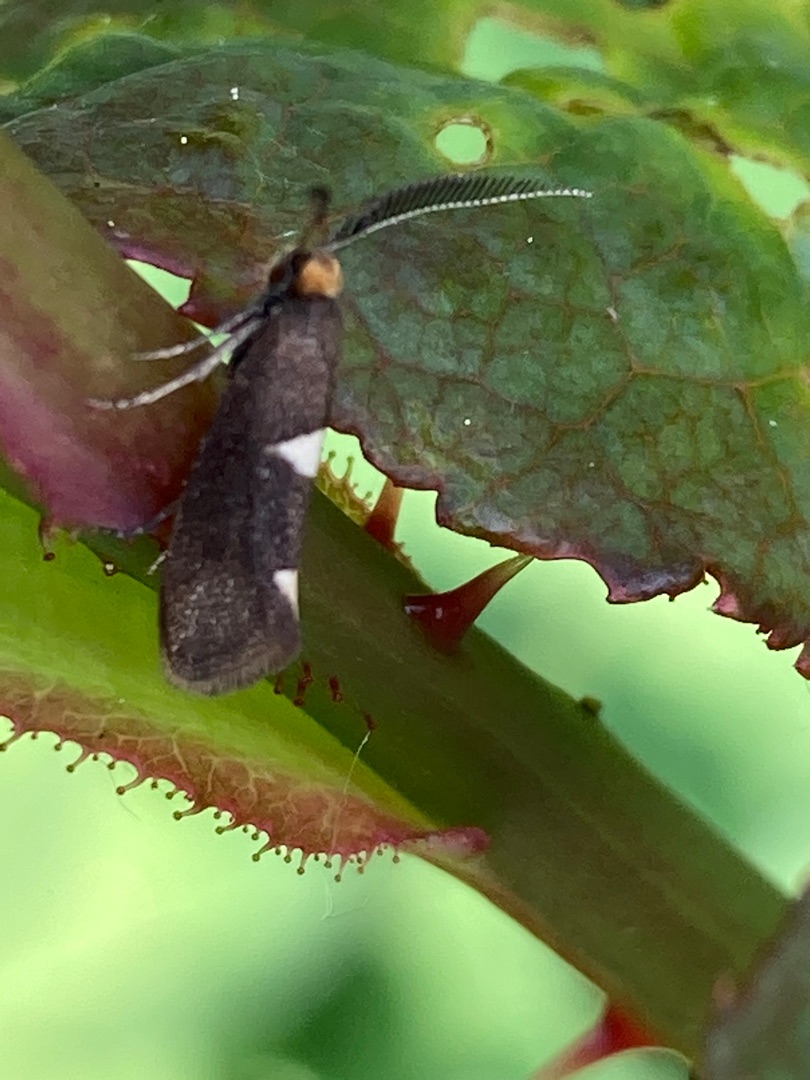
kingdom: Animalia
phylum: Arthropoda
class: Insecta
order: Lepidoptera
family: Incurvariidae
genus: Incurvaria
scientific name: Incurvaria masculella
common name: Mørkt nøjsomt møl
